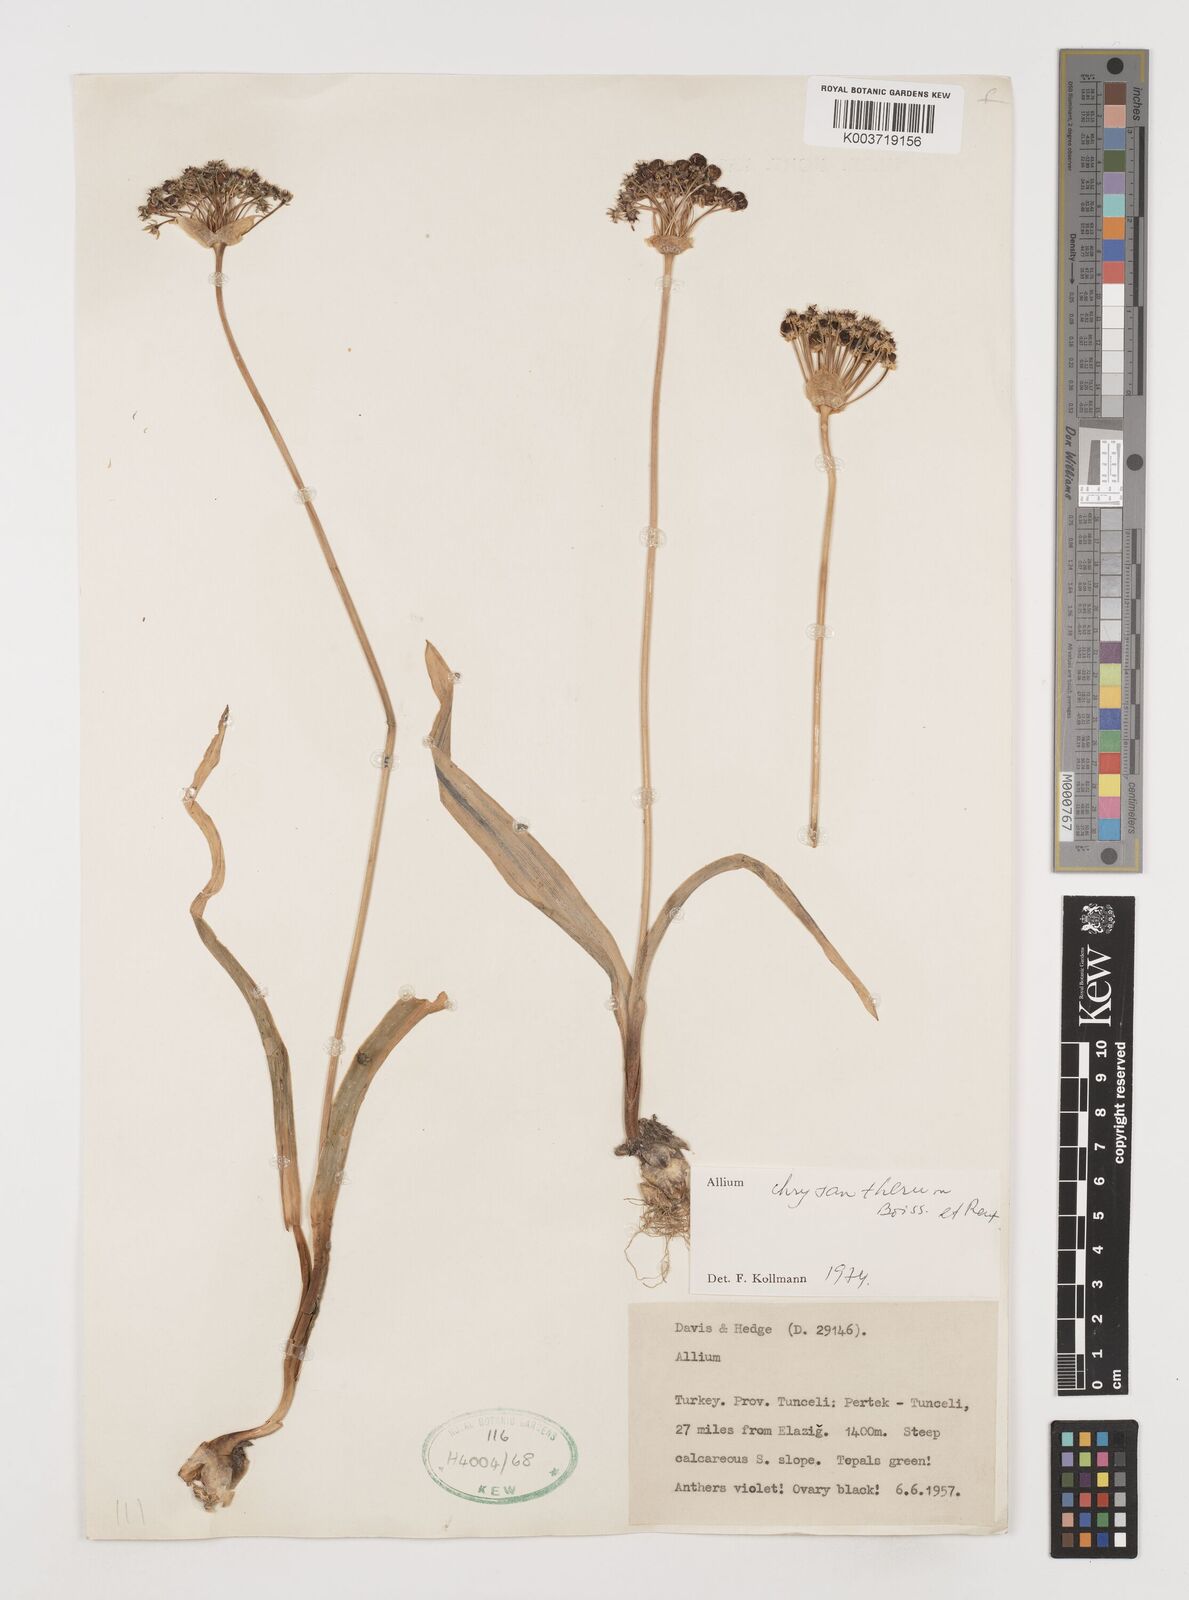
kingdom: Plantae
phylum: Tracheophyta
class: Liliopsida
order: Asparagales
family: Amaryllidaceae
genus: Allium
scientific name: Allium chrysantherum
